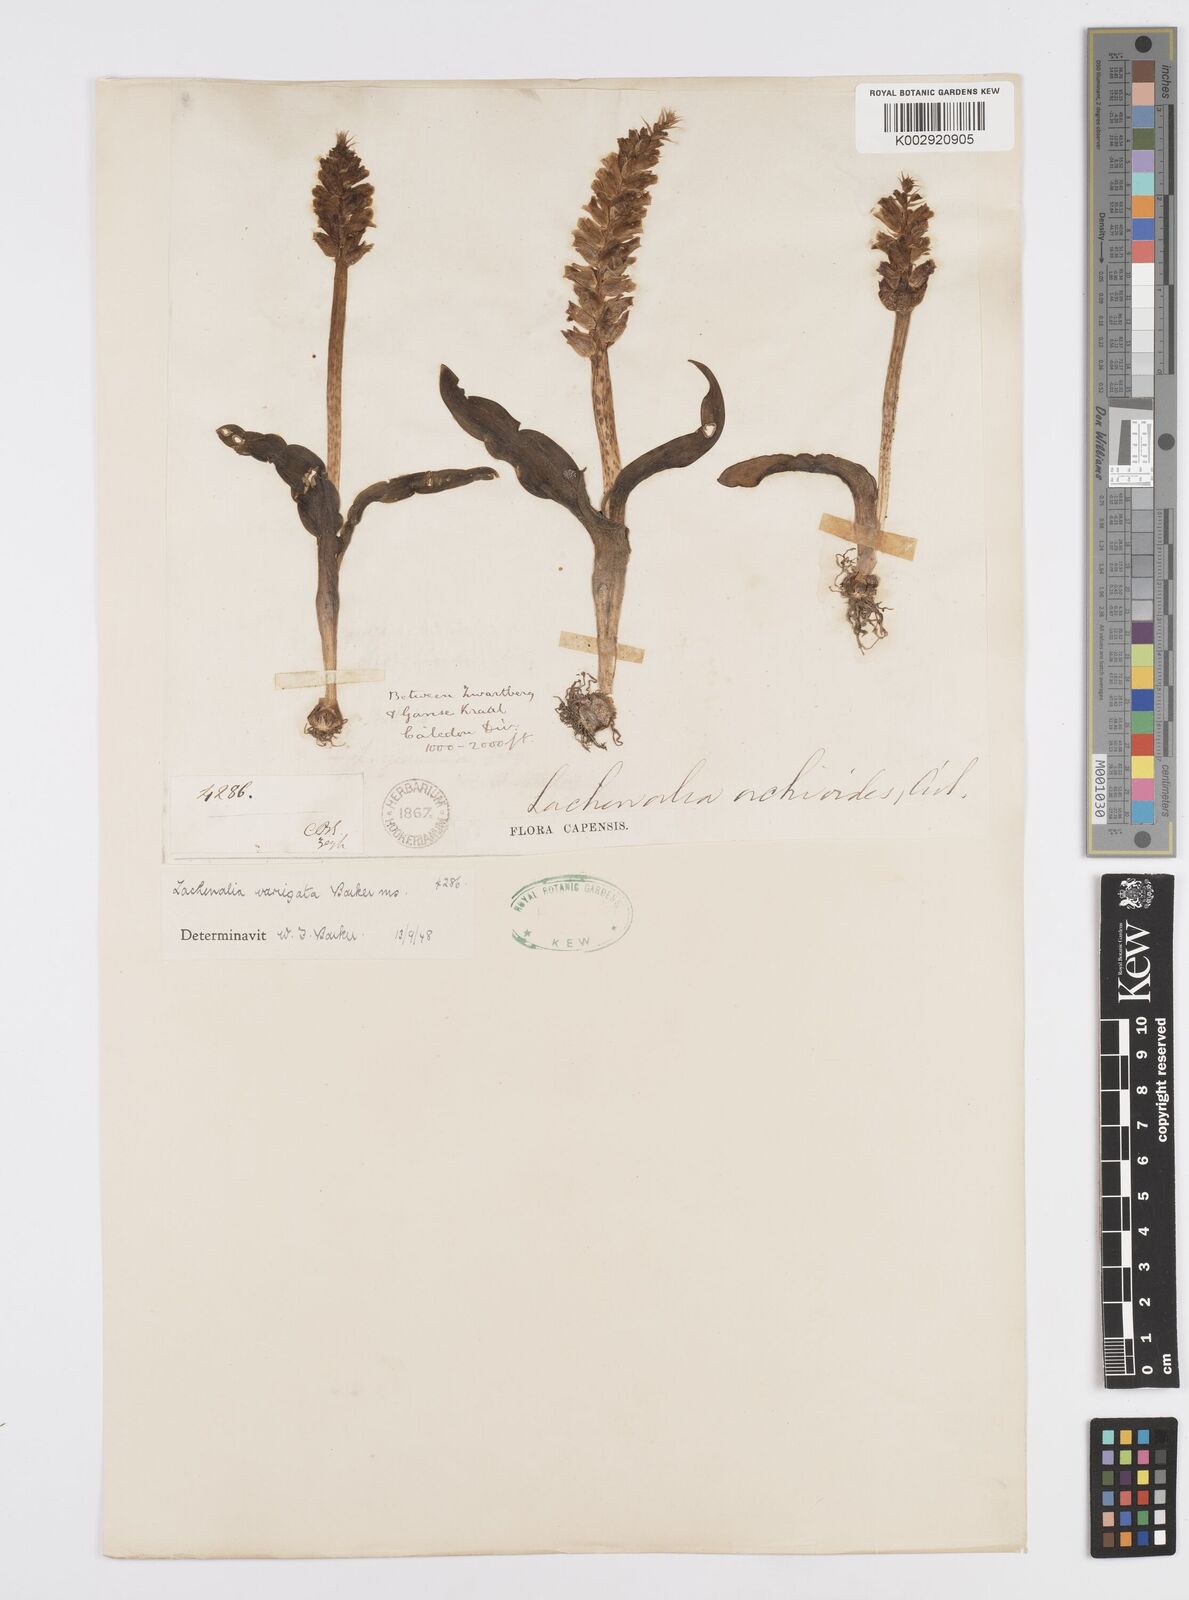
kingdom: Plantae
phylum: Tracheophyta
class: Liliopsida
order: Asparagales
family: Asparagaceae
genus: Lachenalia
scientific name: Lachenalia variegata
